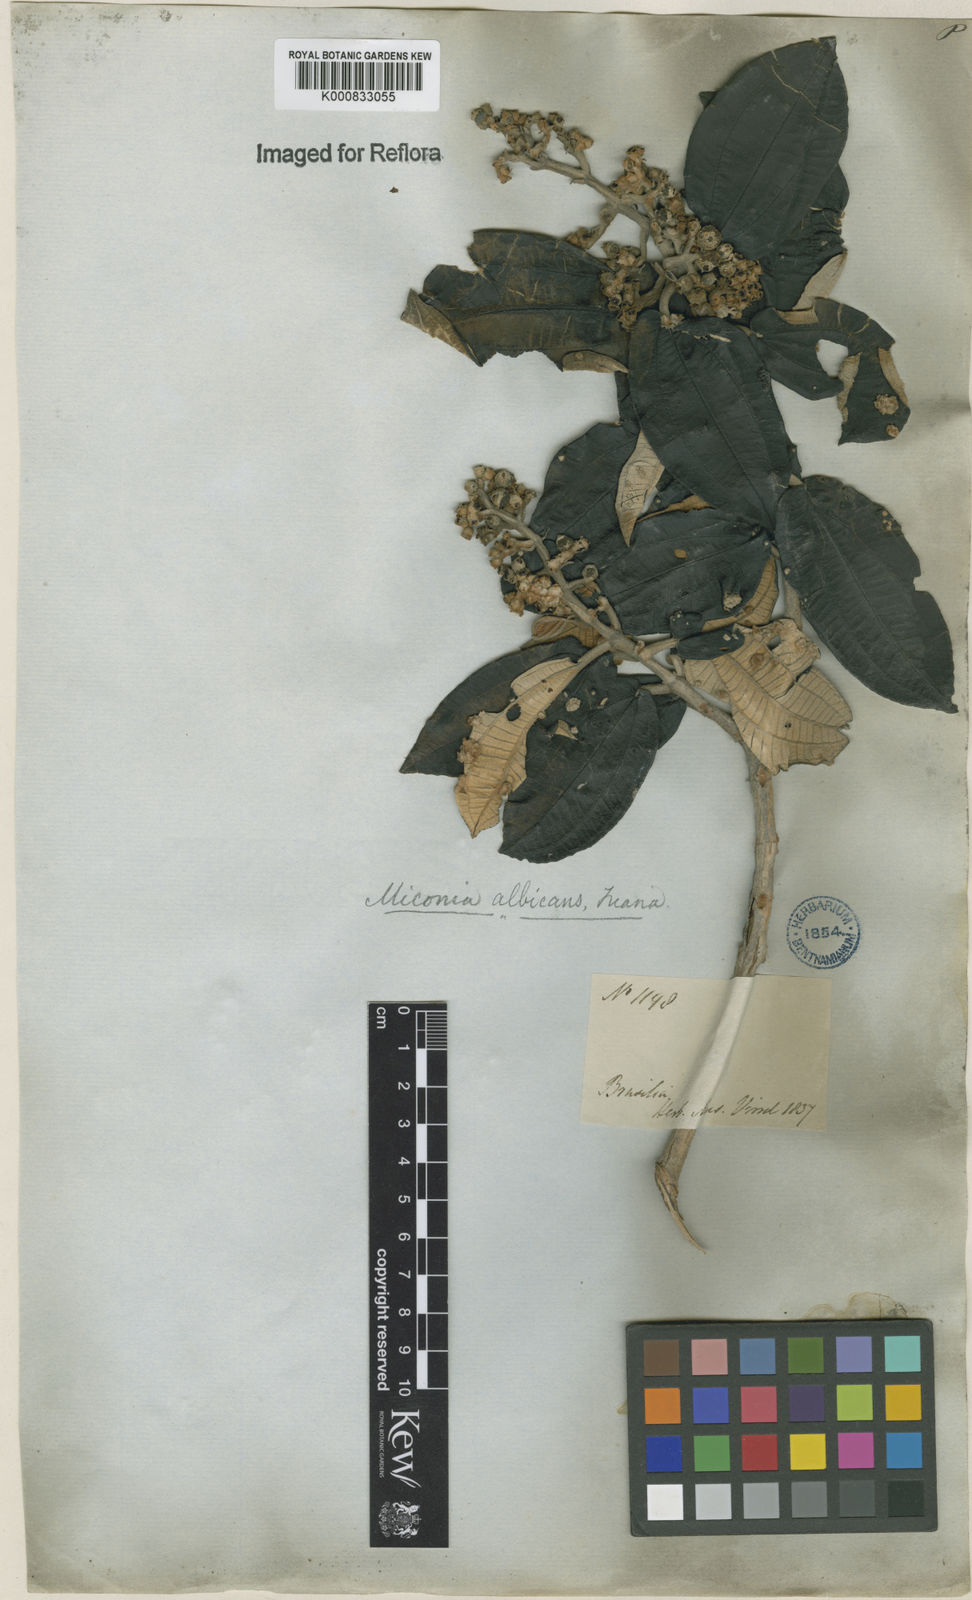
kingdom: Plantae
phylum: Tracheophyta
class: Magnoliopsida
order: Myrtales
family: Melastomataceae
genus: Miconia
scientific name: Miconia albicans
